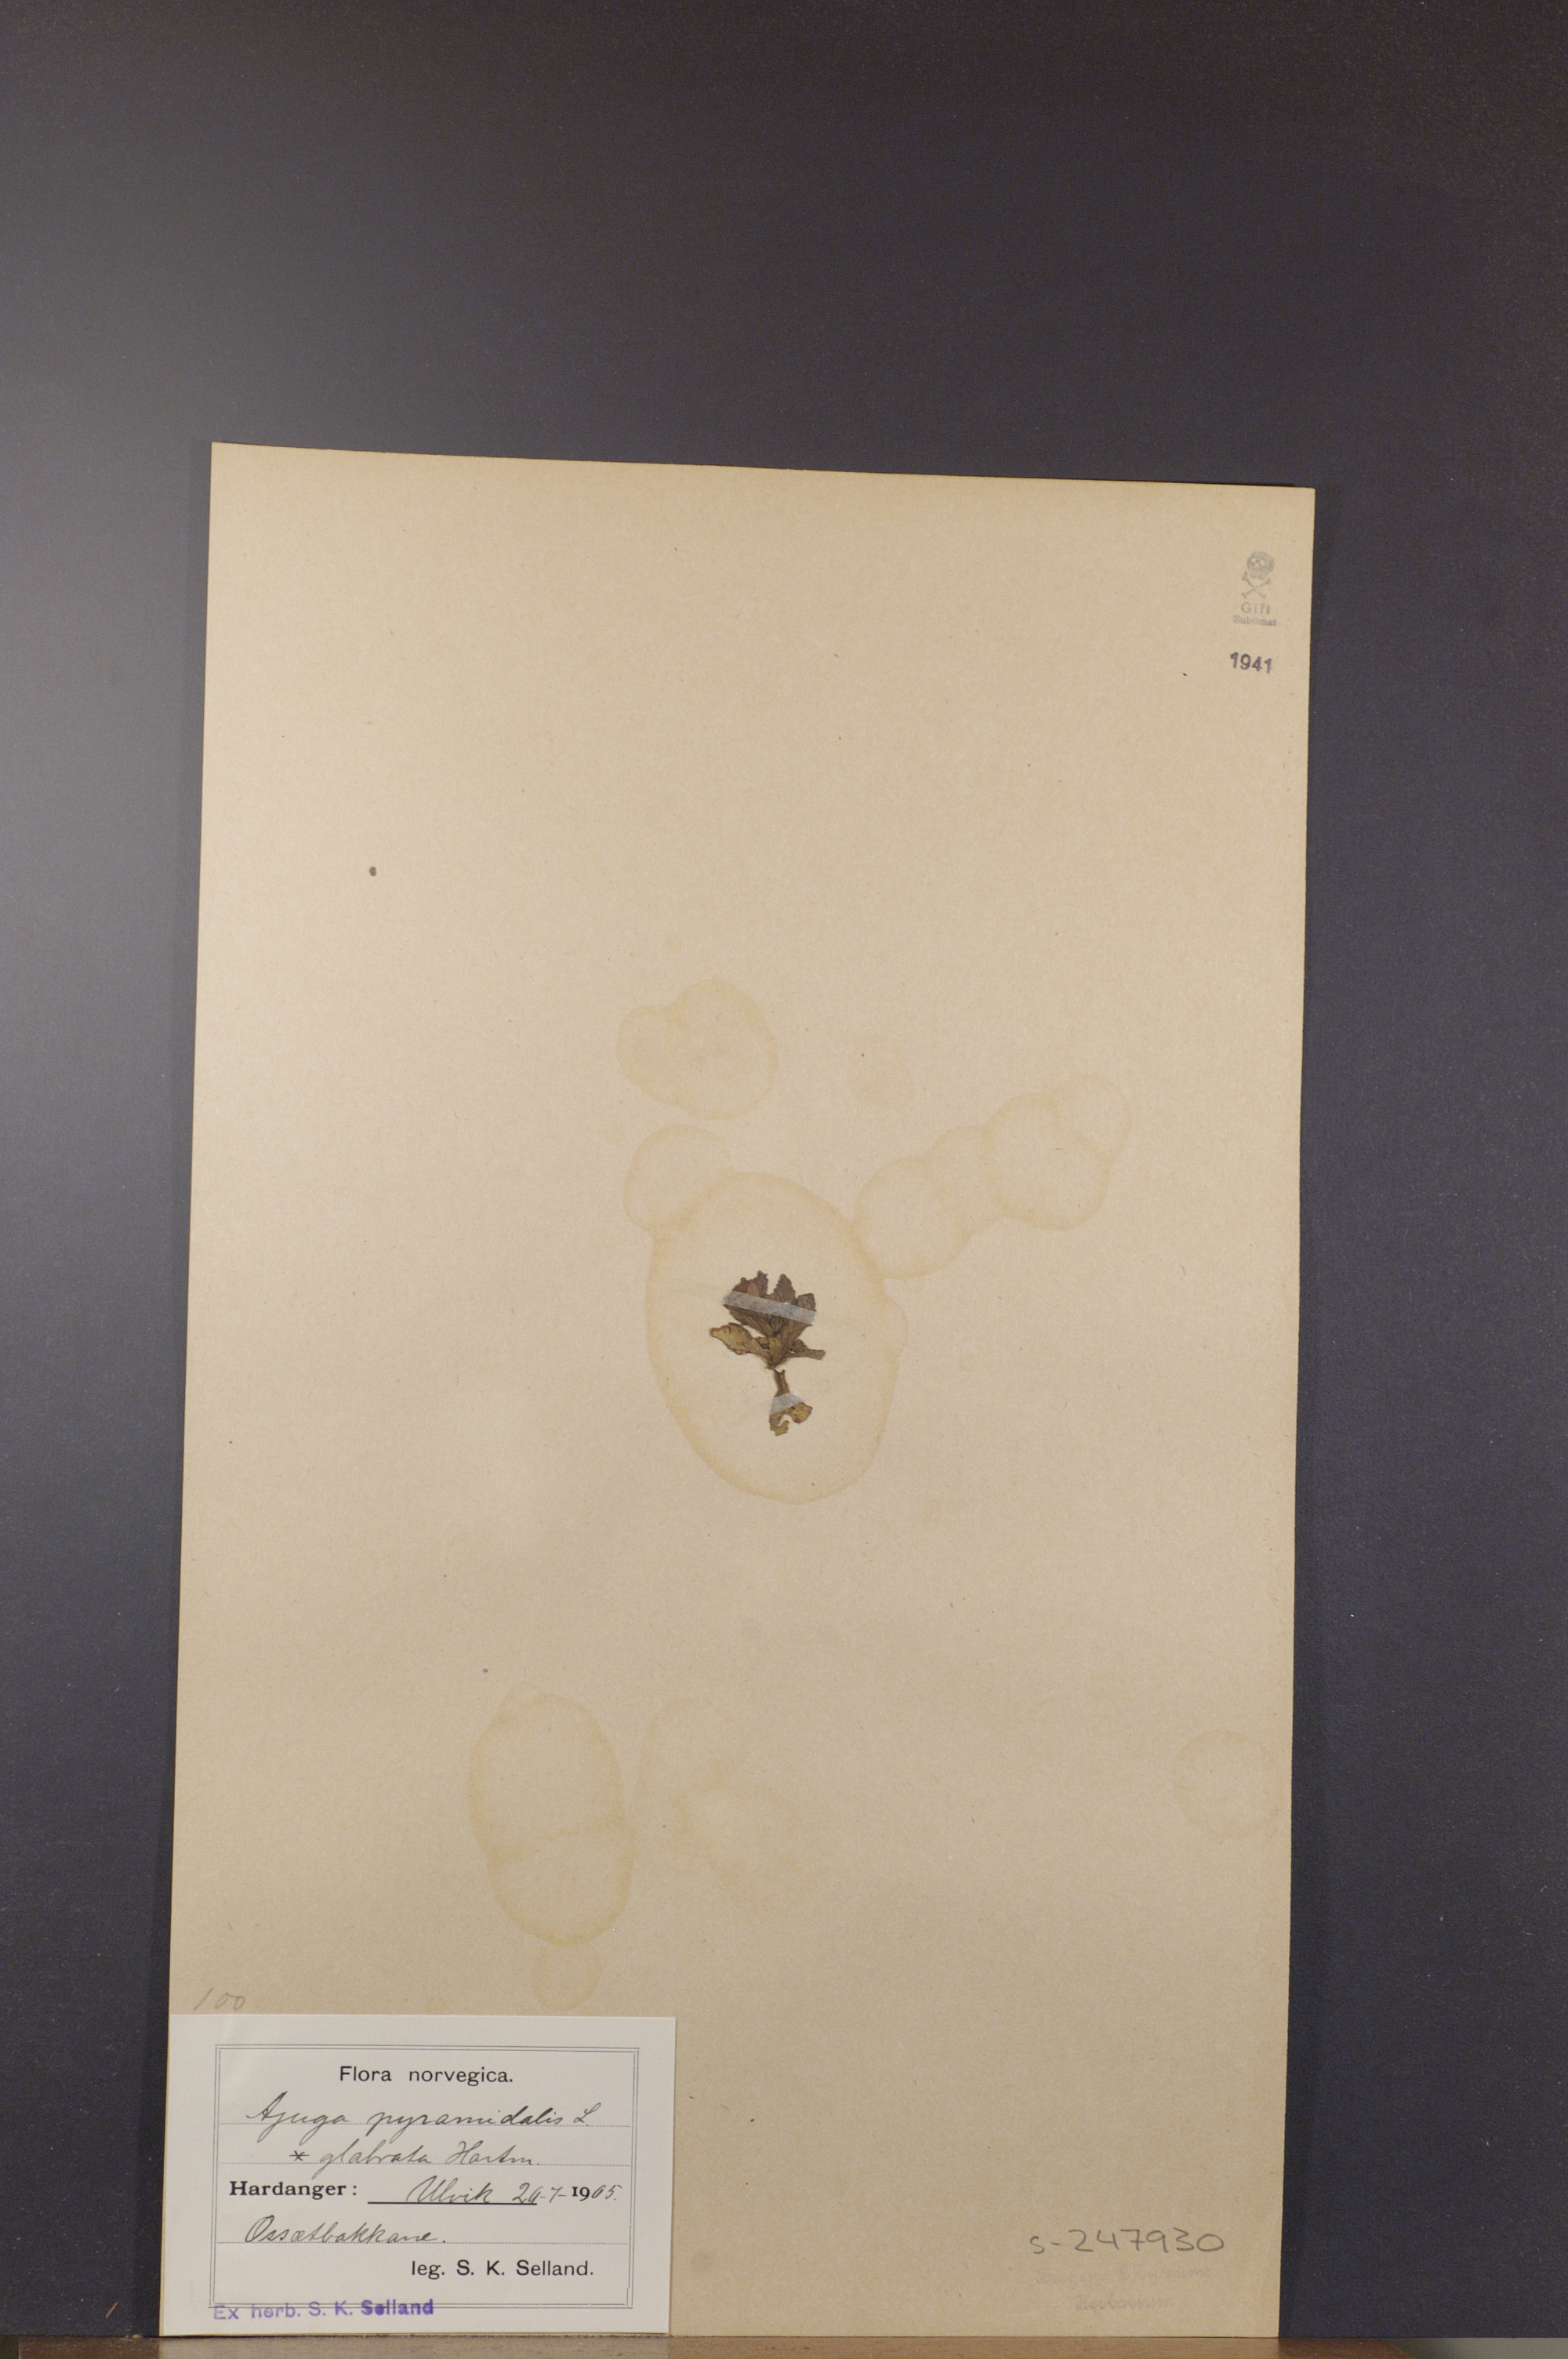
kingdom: Plantae
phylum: Tracheophyta
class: Magnoliopsida
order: Lamiales
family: Lamiaceae
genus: Ajuga
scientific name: Ajuga pyramidalis
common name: Pyramid bugle
